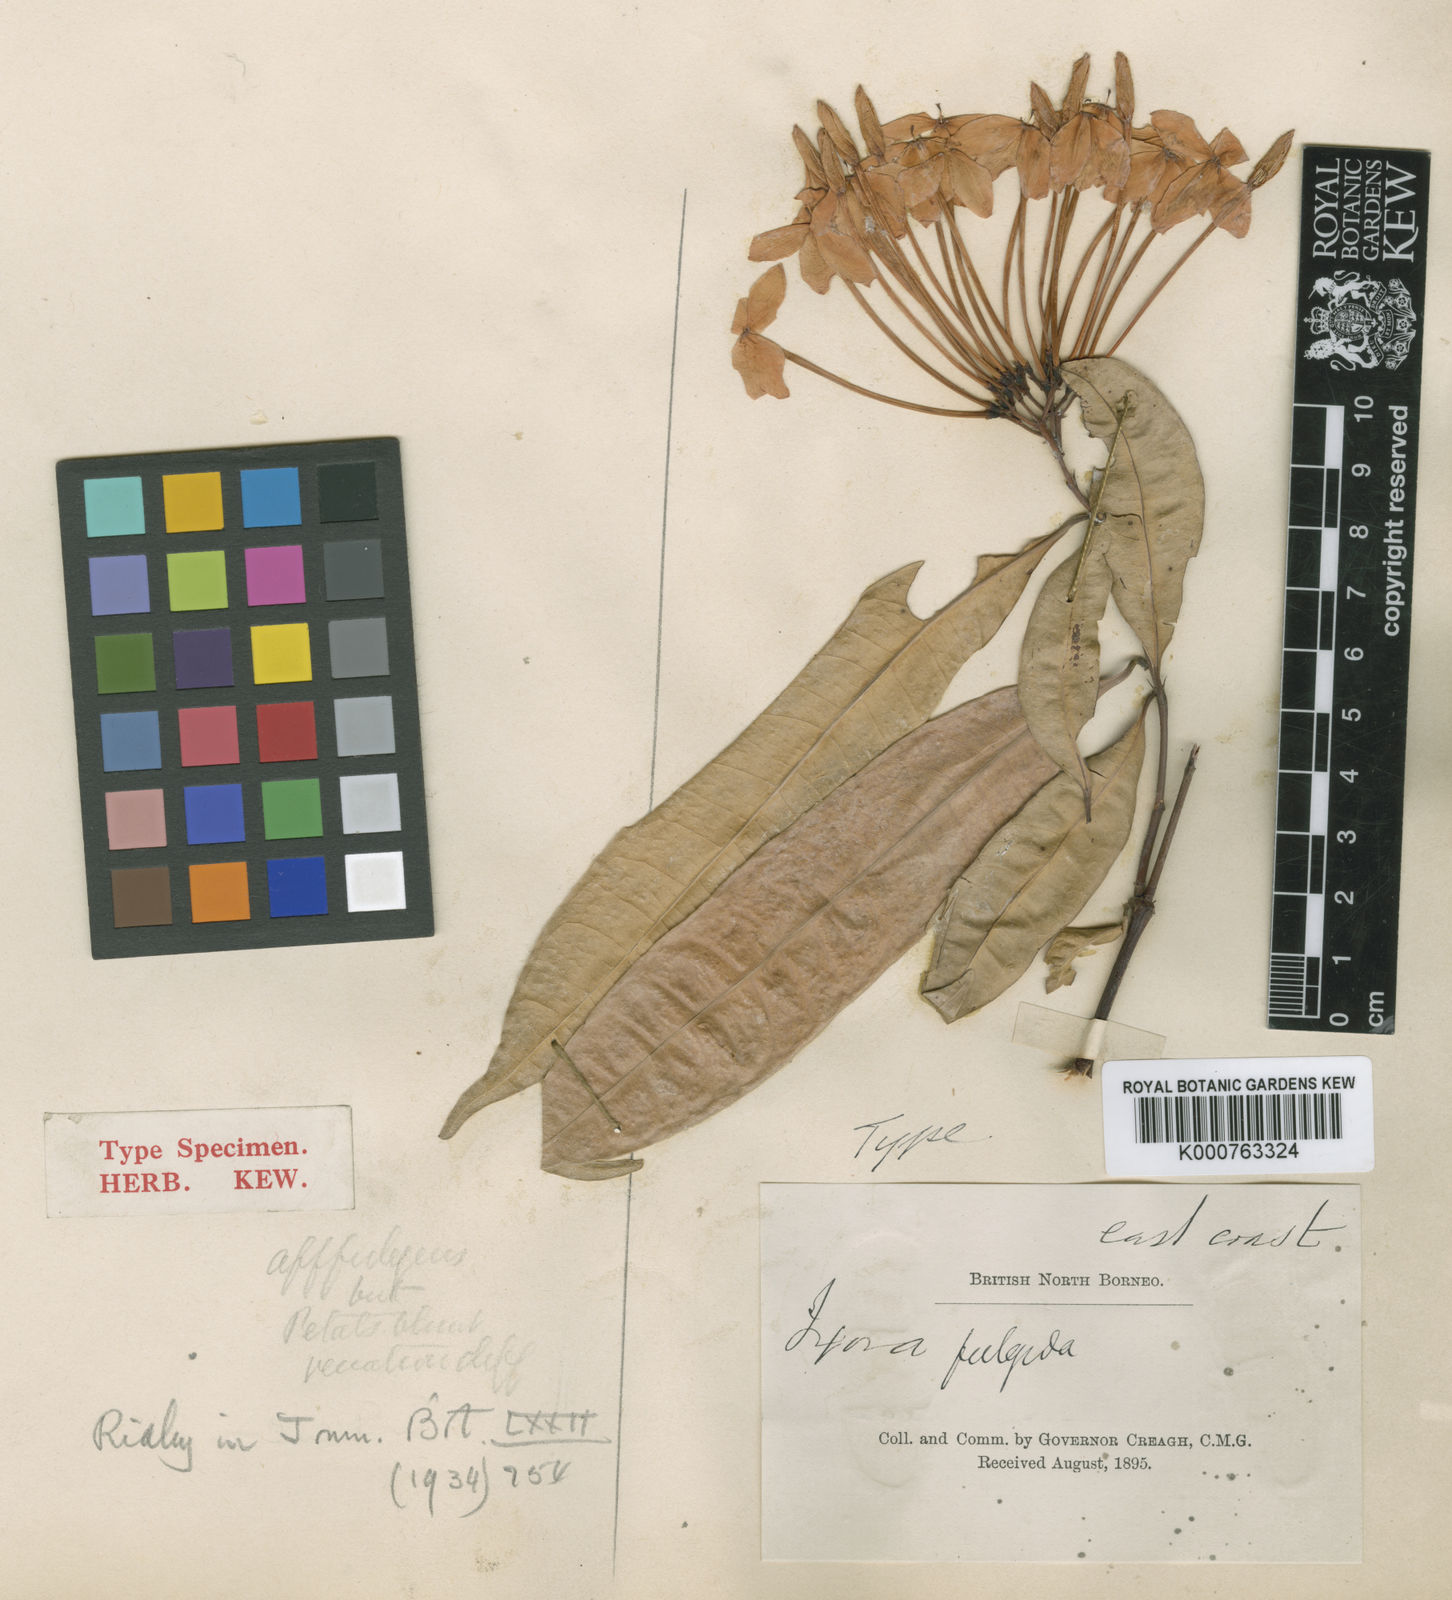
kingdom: Plantae
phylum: Tracheophyta
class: Magnoliopsida
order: Gentianales
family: Rubiaceae
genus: Ixora
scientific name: Ixora fulgida
